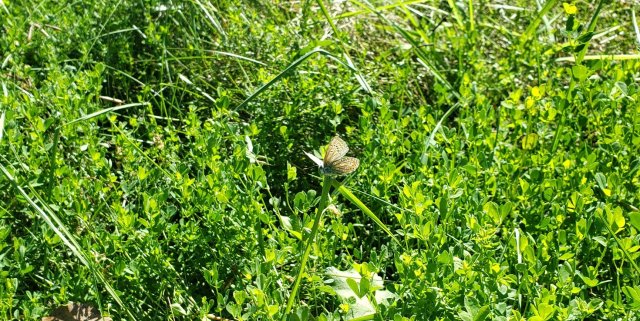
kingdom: Animalia
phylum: Arthropoda
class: Insecta
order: Lepidoptera
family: Lycaenidae
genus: Polyommatus
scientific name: Polyommatus icarus
